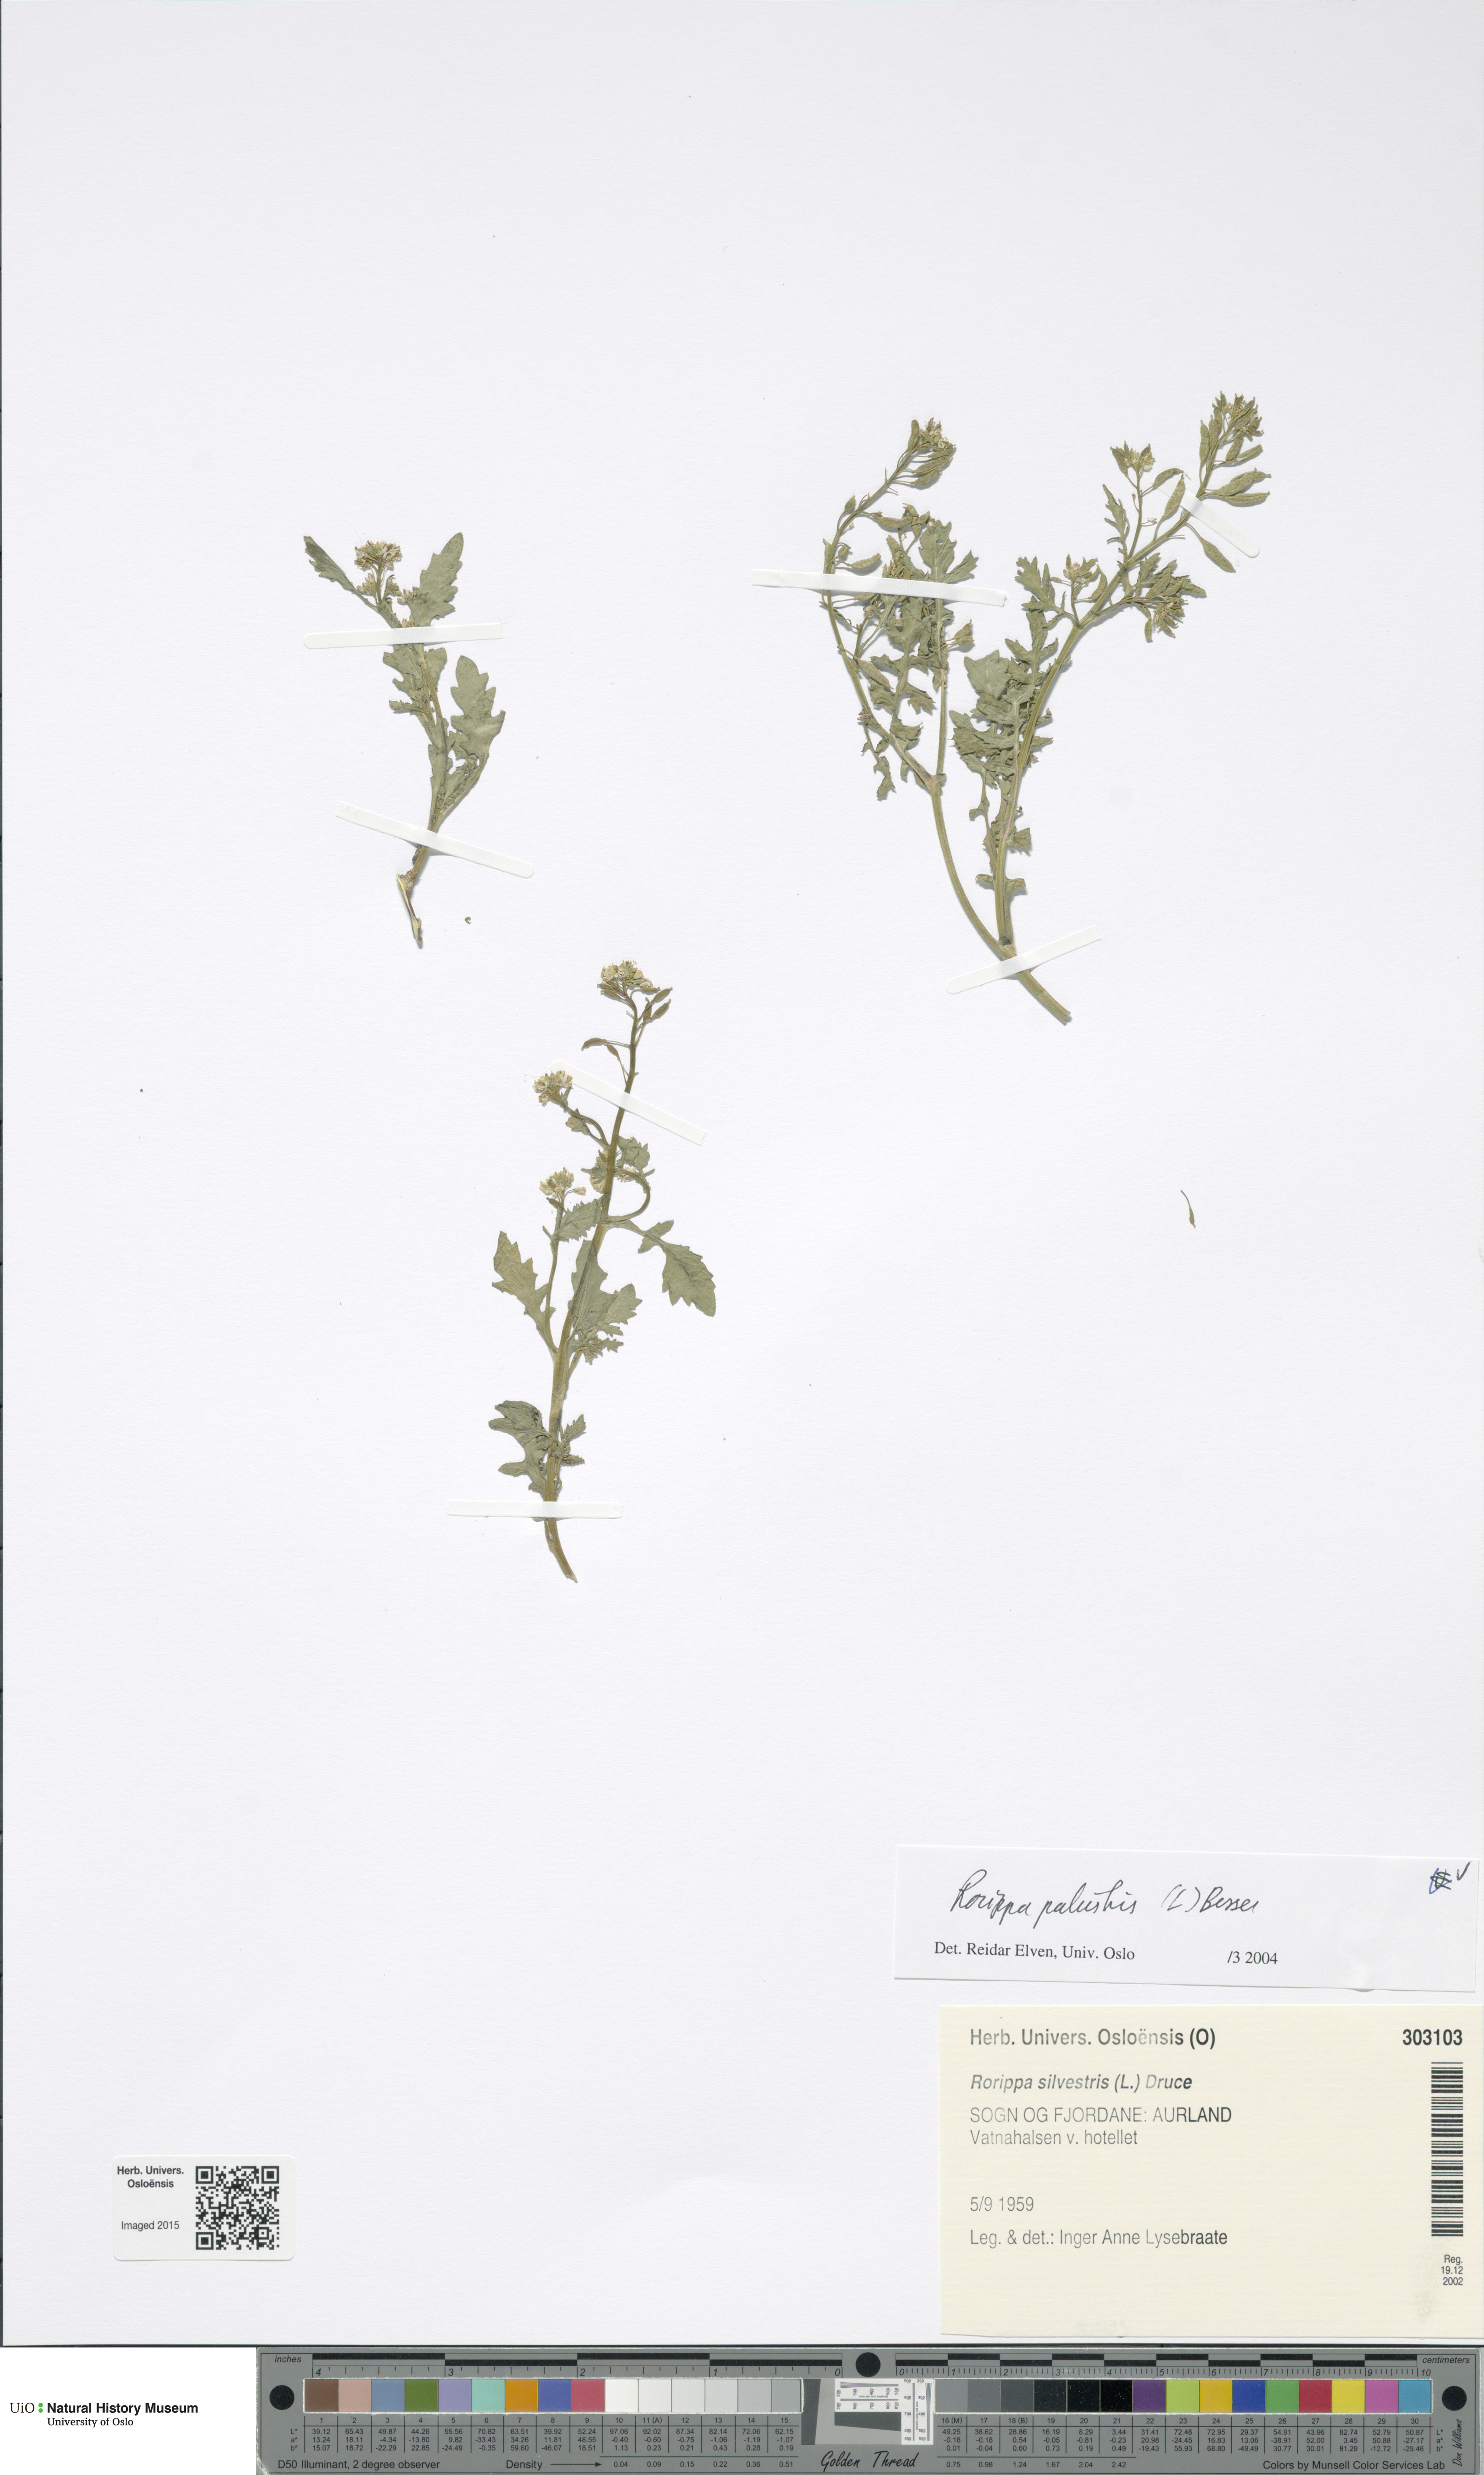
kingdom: Plantae
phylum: Tracheophyta
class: Magnoliopsida
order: Brassicales
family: Brassicaceae
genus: Rorippa
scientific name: Rorippa palustris
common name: Marsh yellow-cress
